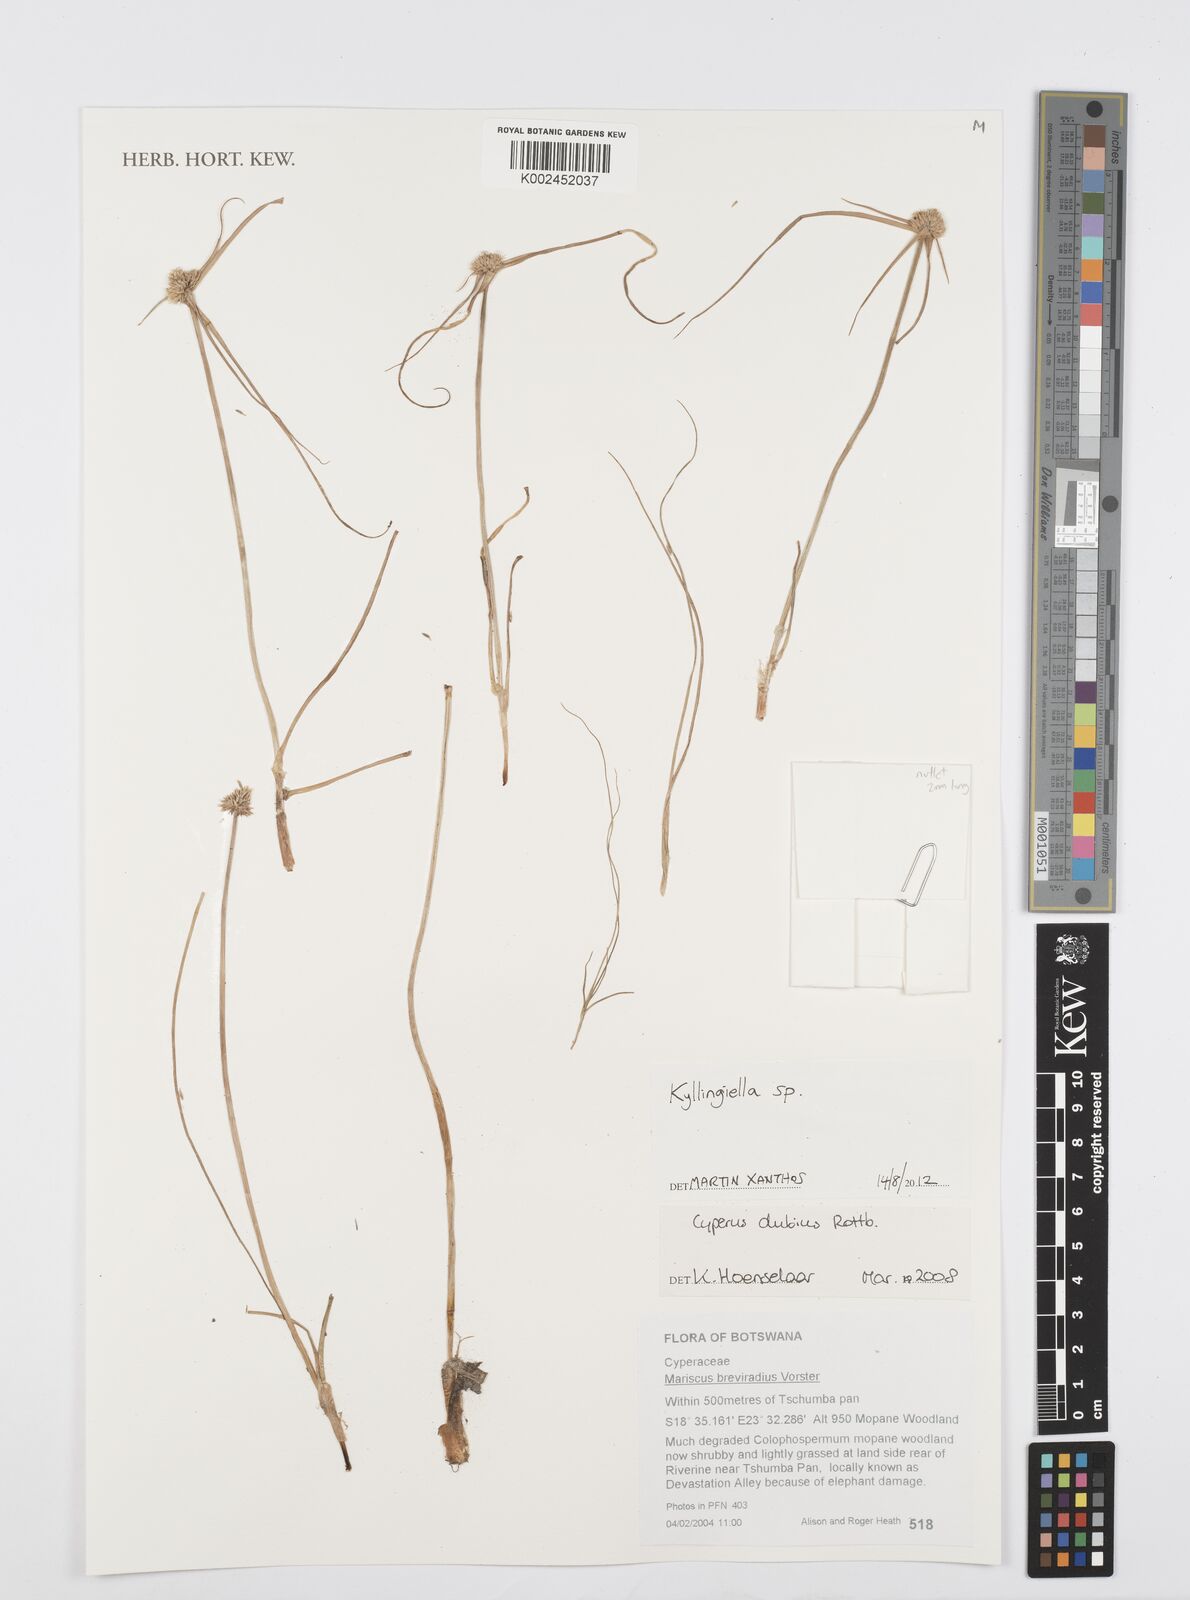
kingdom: Plantae
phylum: Tracheophyta
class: Liliopsida
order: Poales
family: Cyperaceae
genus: Cyperus
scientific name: Cyperus
